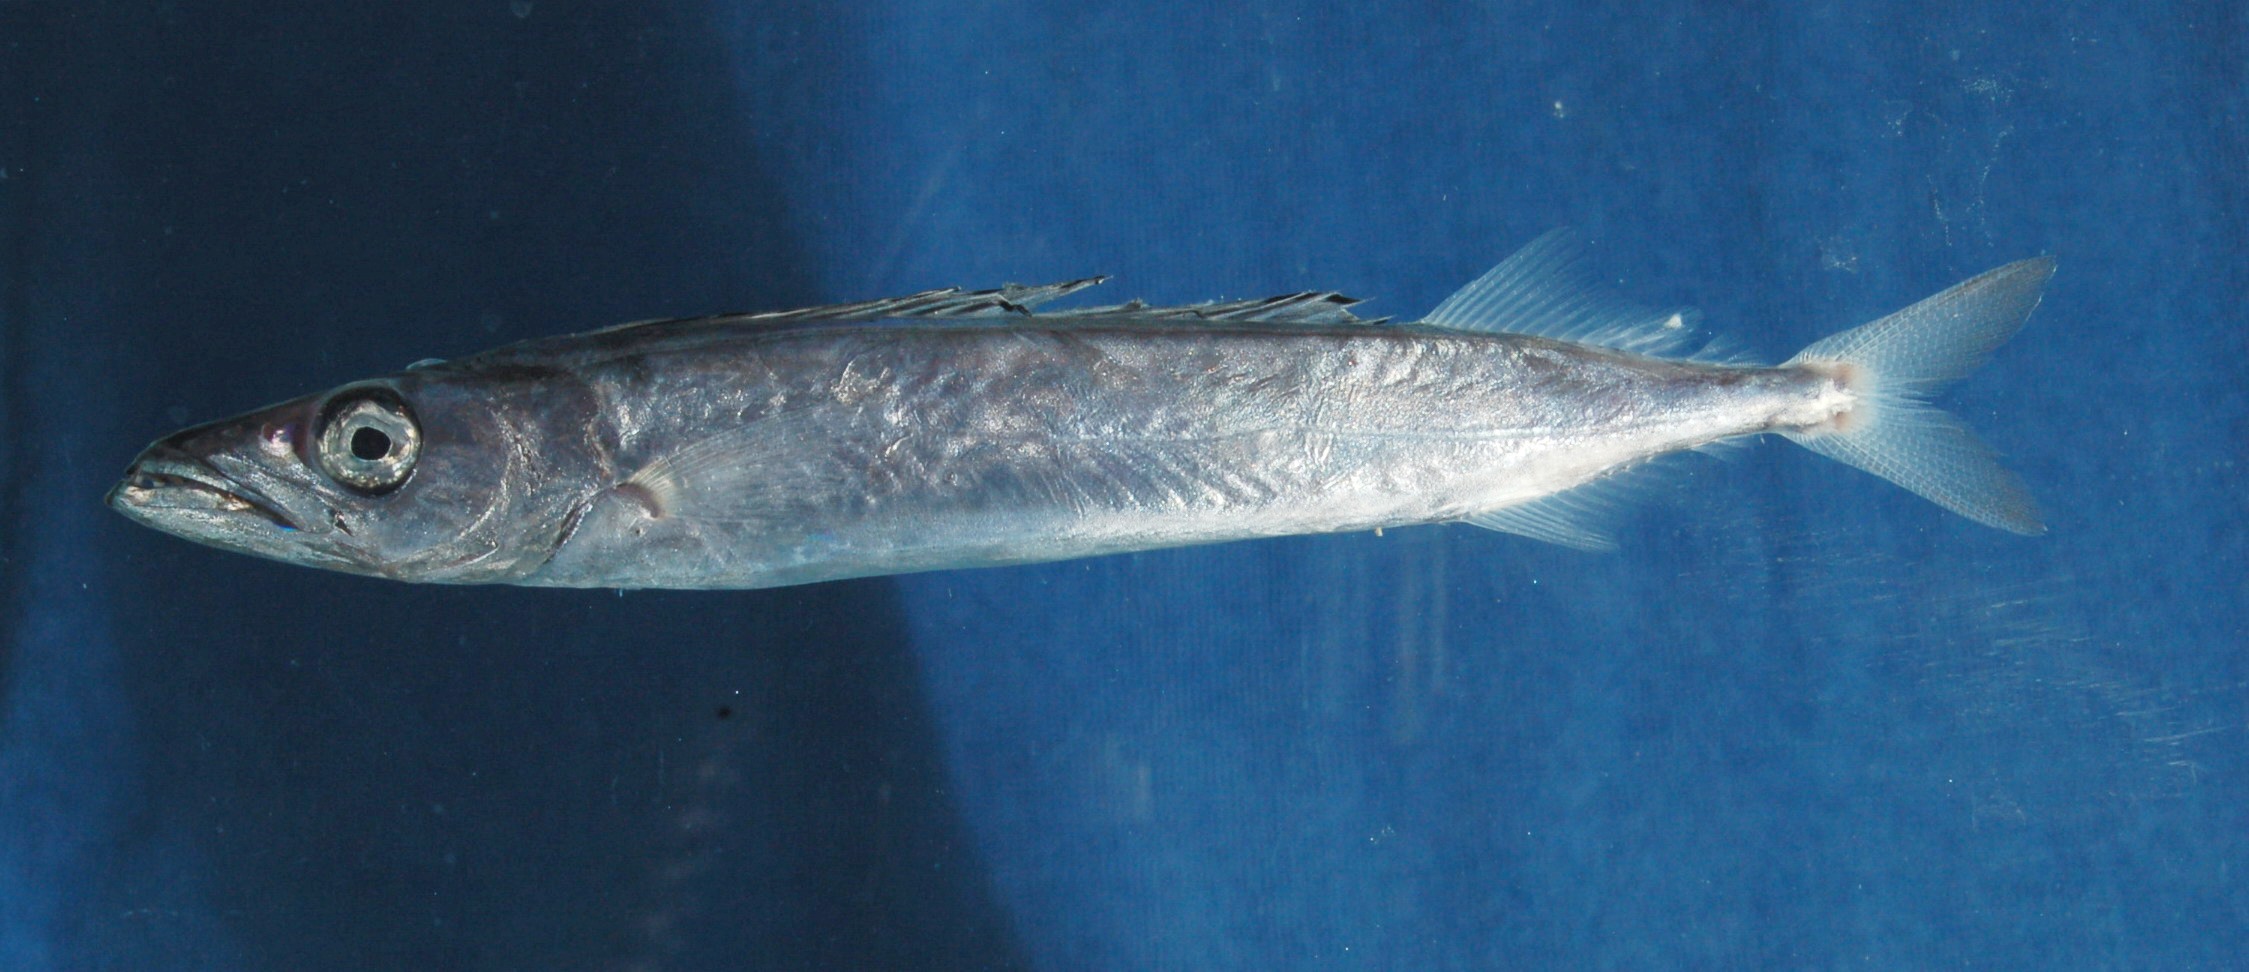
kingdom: Animalia
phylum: Chordata
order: Perciformes
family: Gempylidae
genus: Rexea
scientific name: Rexea prometheoides
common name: Royal escolar
